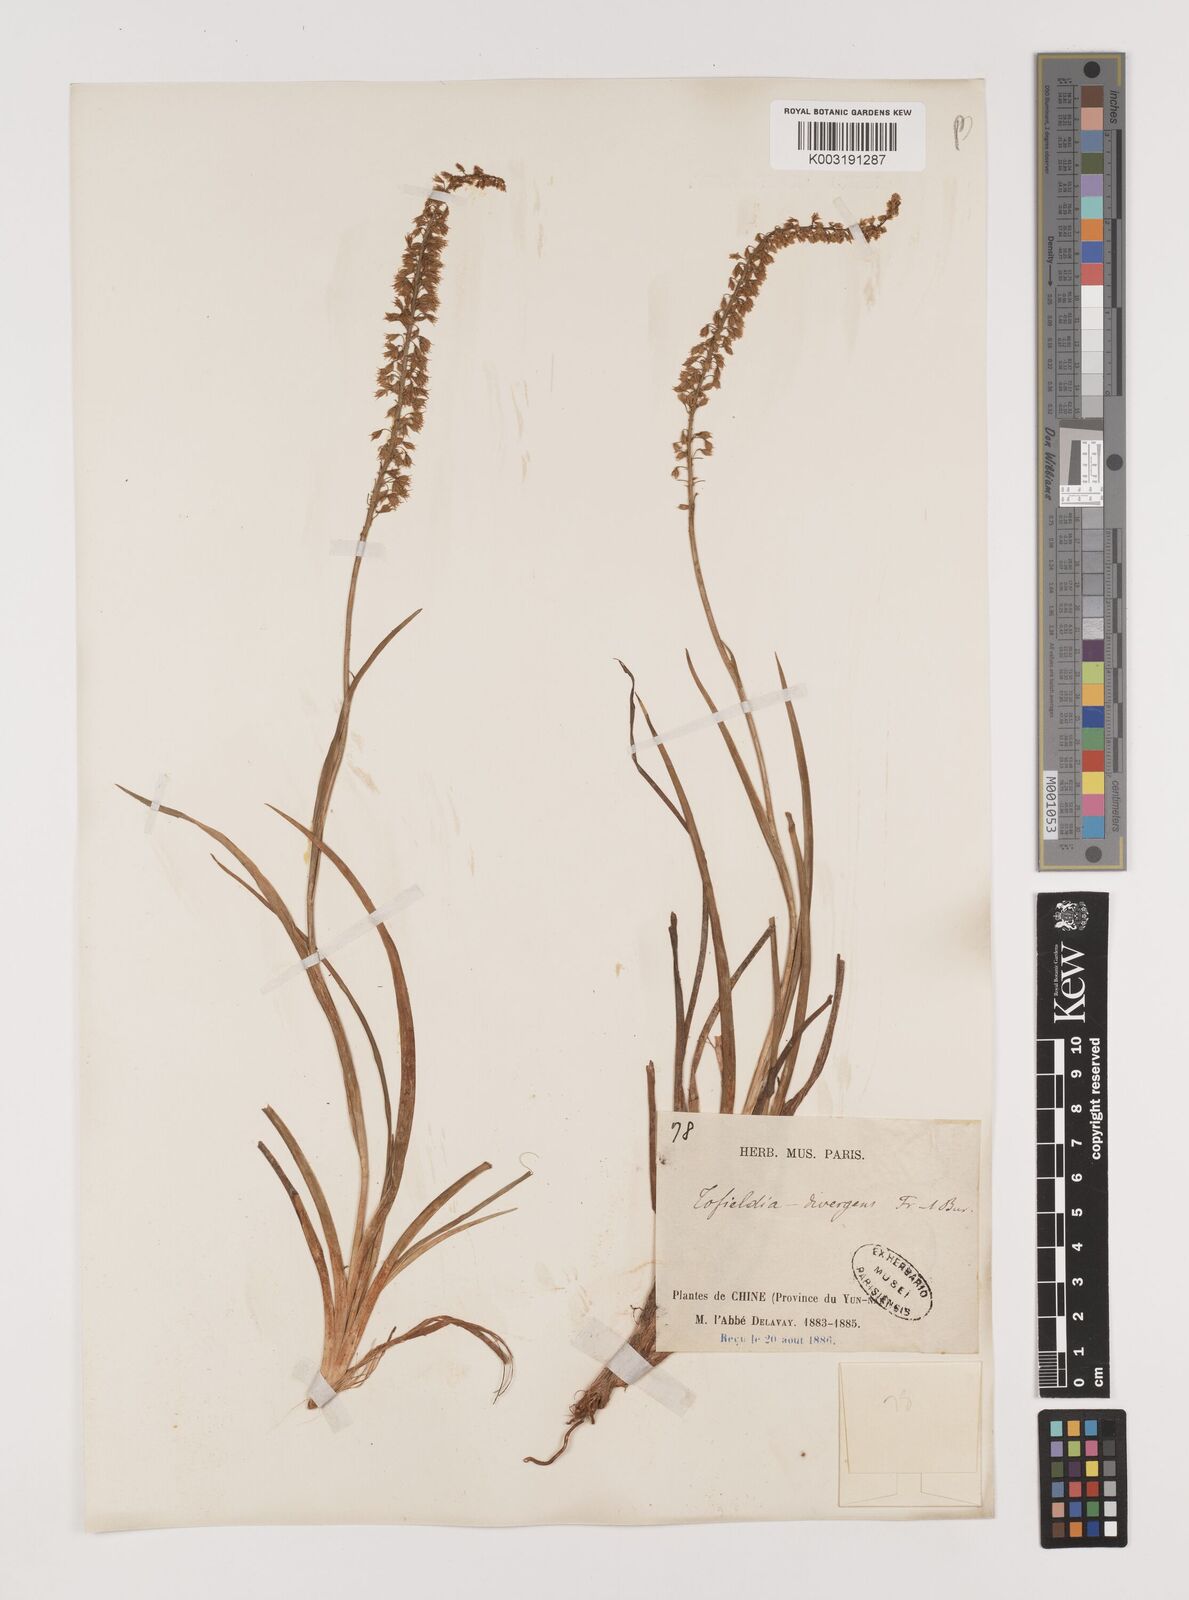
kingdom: Plantae
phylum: Tracheophyta
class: Liliopsida
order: Alismatales
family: Tofieldiaceae
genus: Tofieldia
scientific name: Tofieldia divergens
